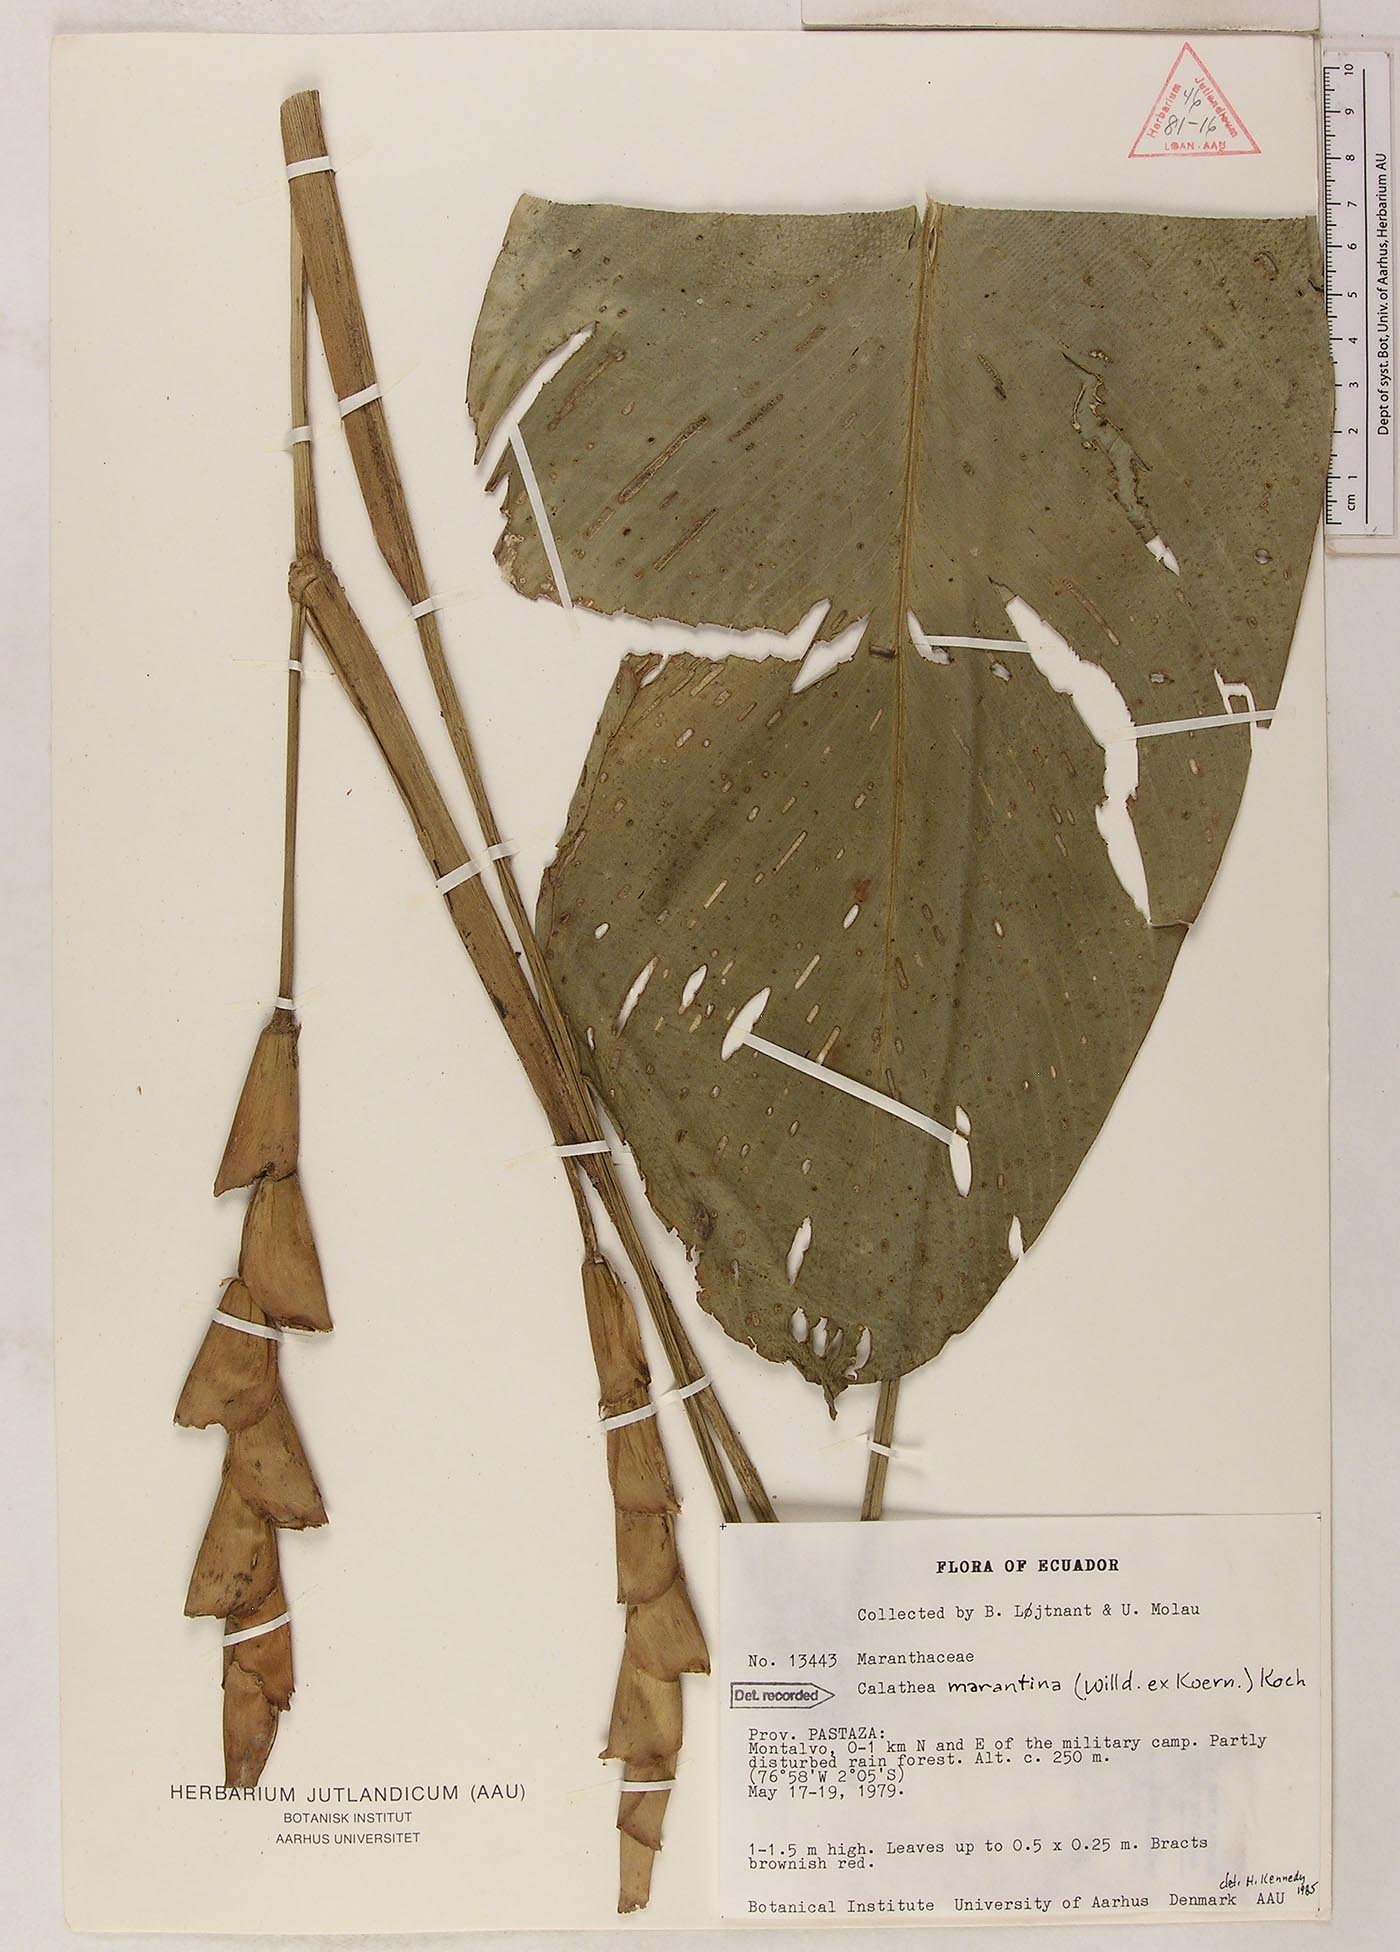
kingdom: Plantae
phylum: Tracheophyta
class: Liliopsida
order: Zingiberales
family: Marantaceae
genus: Calathea
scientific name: Calathea marantina
